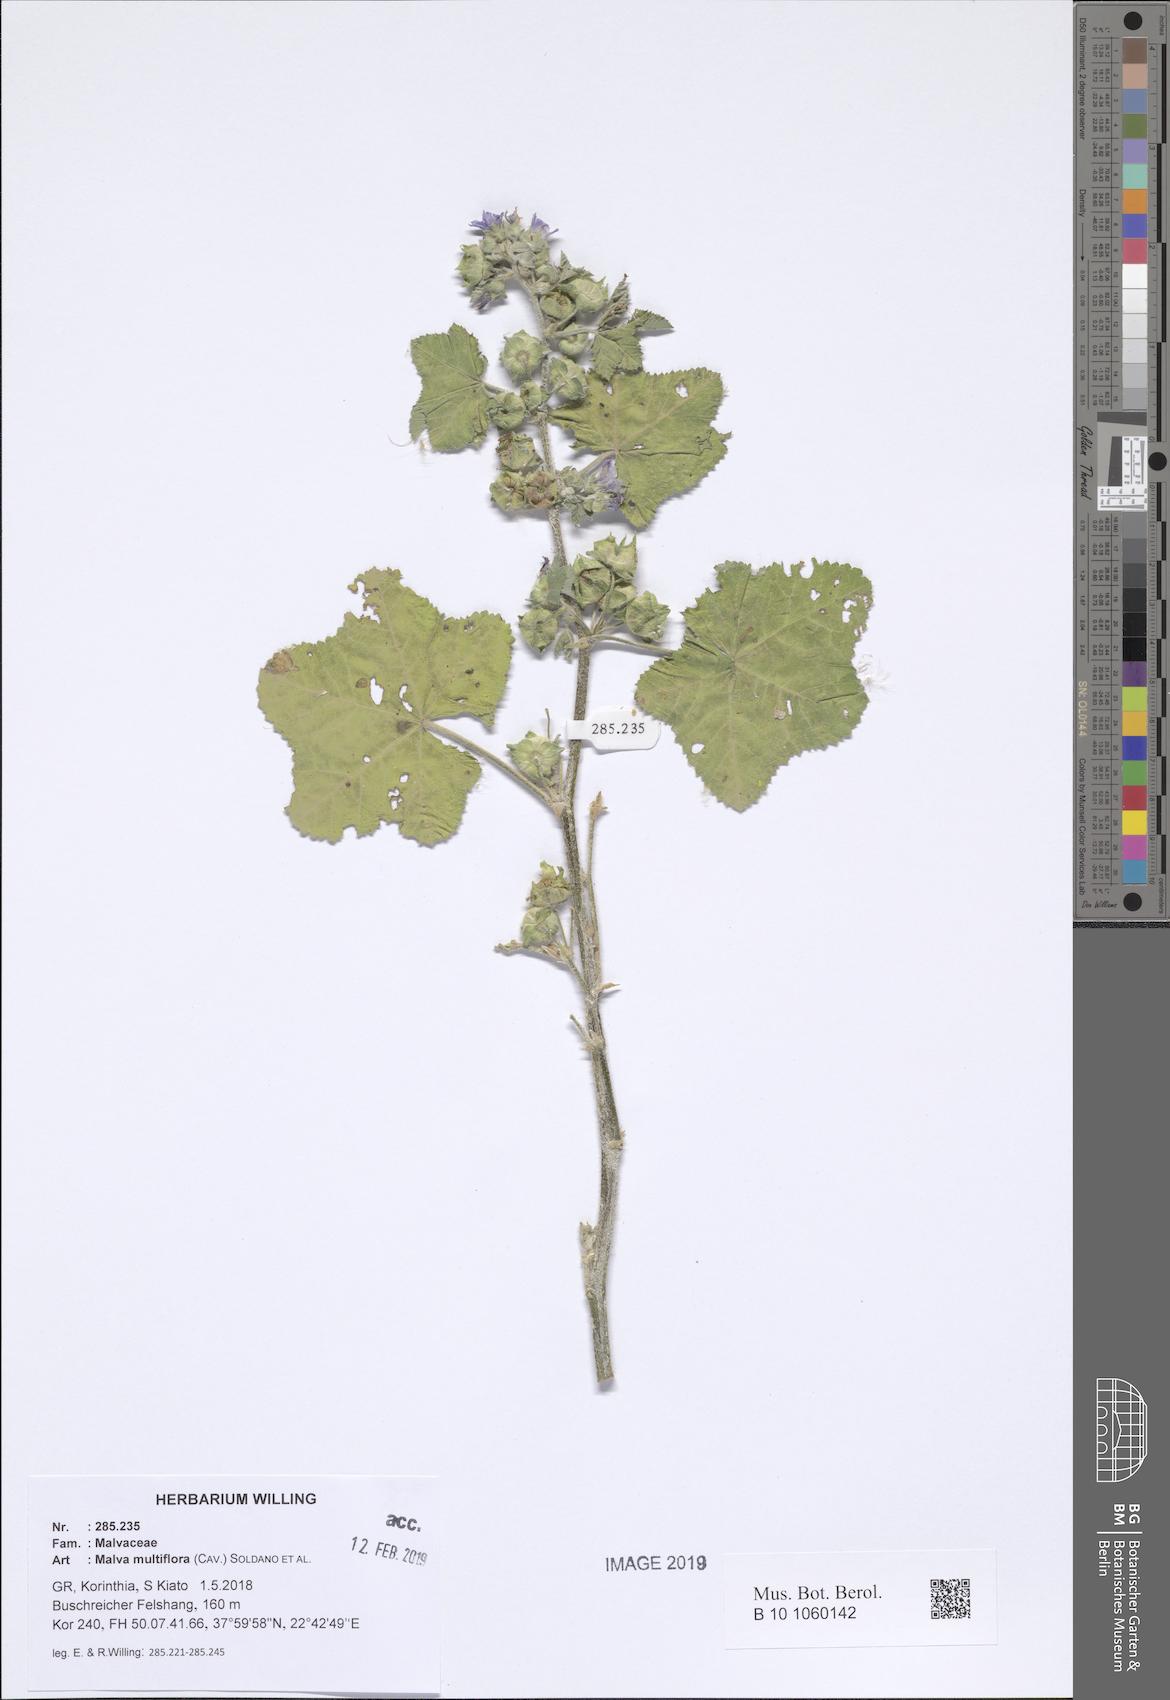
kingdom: Plantae
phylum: Tracheophyta
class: Magnoliopsida
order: Malvales
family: Malvaceae
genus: Malva
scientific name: Malva multiflora
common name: Cheeseweed
